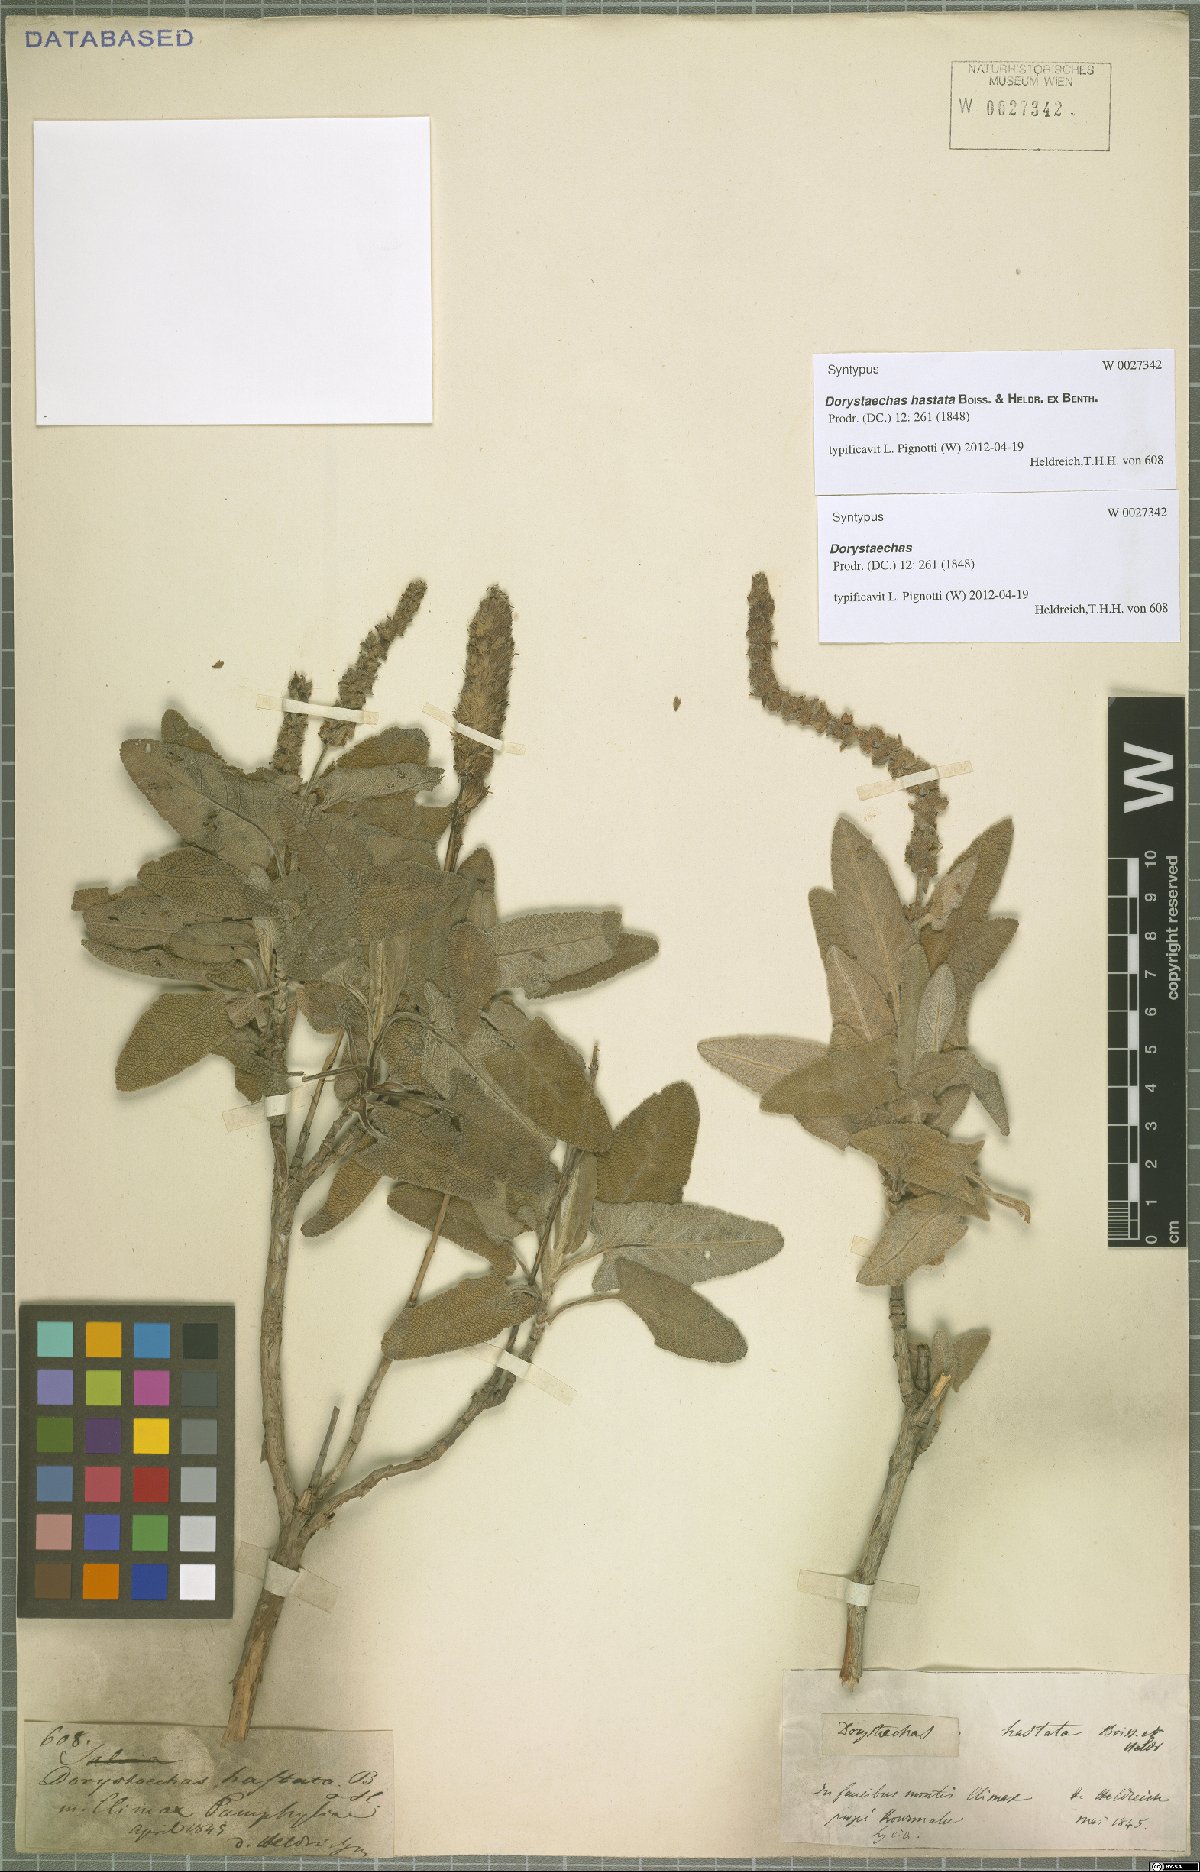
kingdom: Plantae
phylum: Tracheophyta
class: Magnoliopsida
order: Lamiales
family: Lamiaceae
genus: Salvia
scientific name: Salvia dorystaechas
